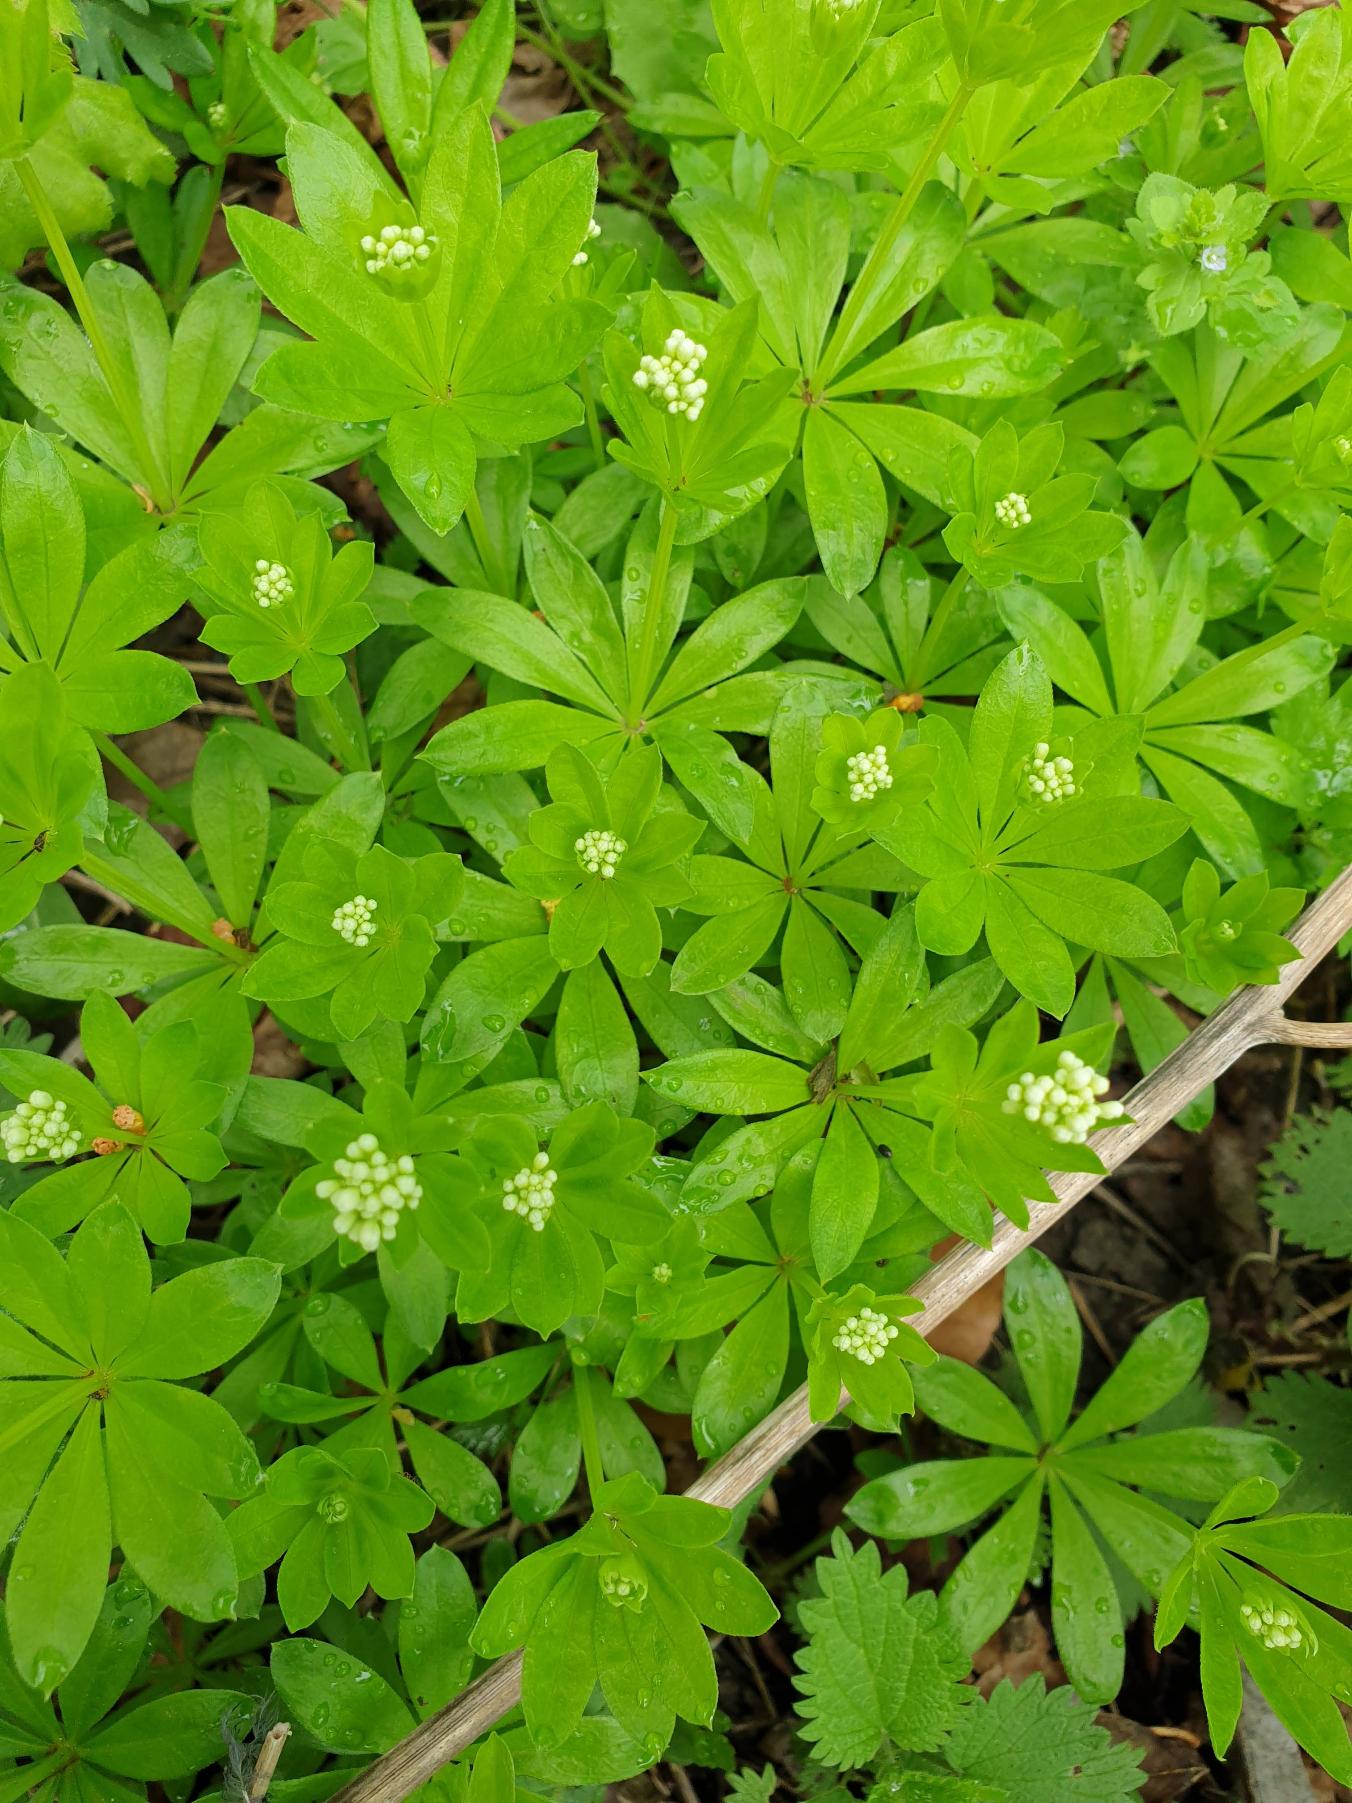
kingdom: Plantae
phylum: Tracheophyta
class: Magnoliopsida
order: Gentianales
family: Rubiaceae
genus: Galium
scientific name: Galium odoratum
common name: Skovmærke
